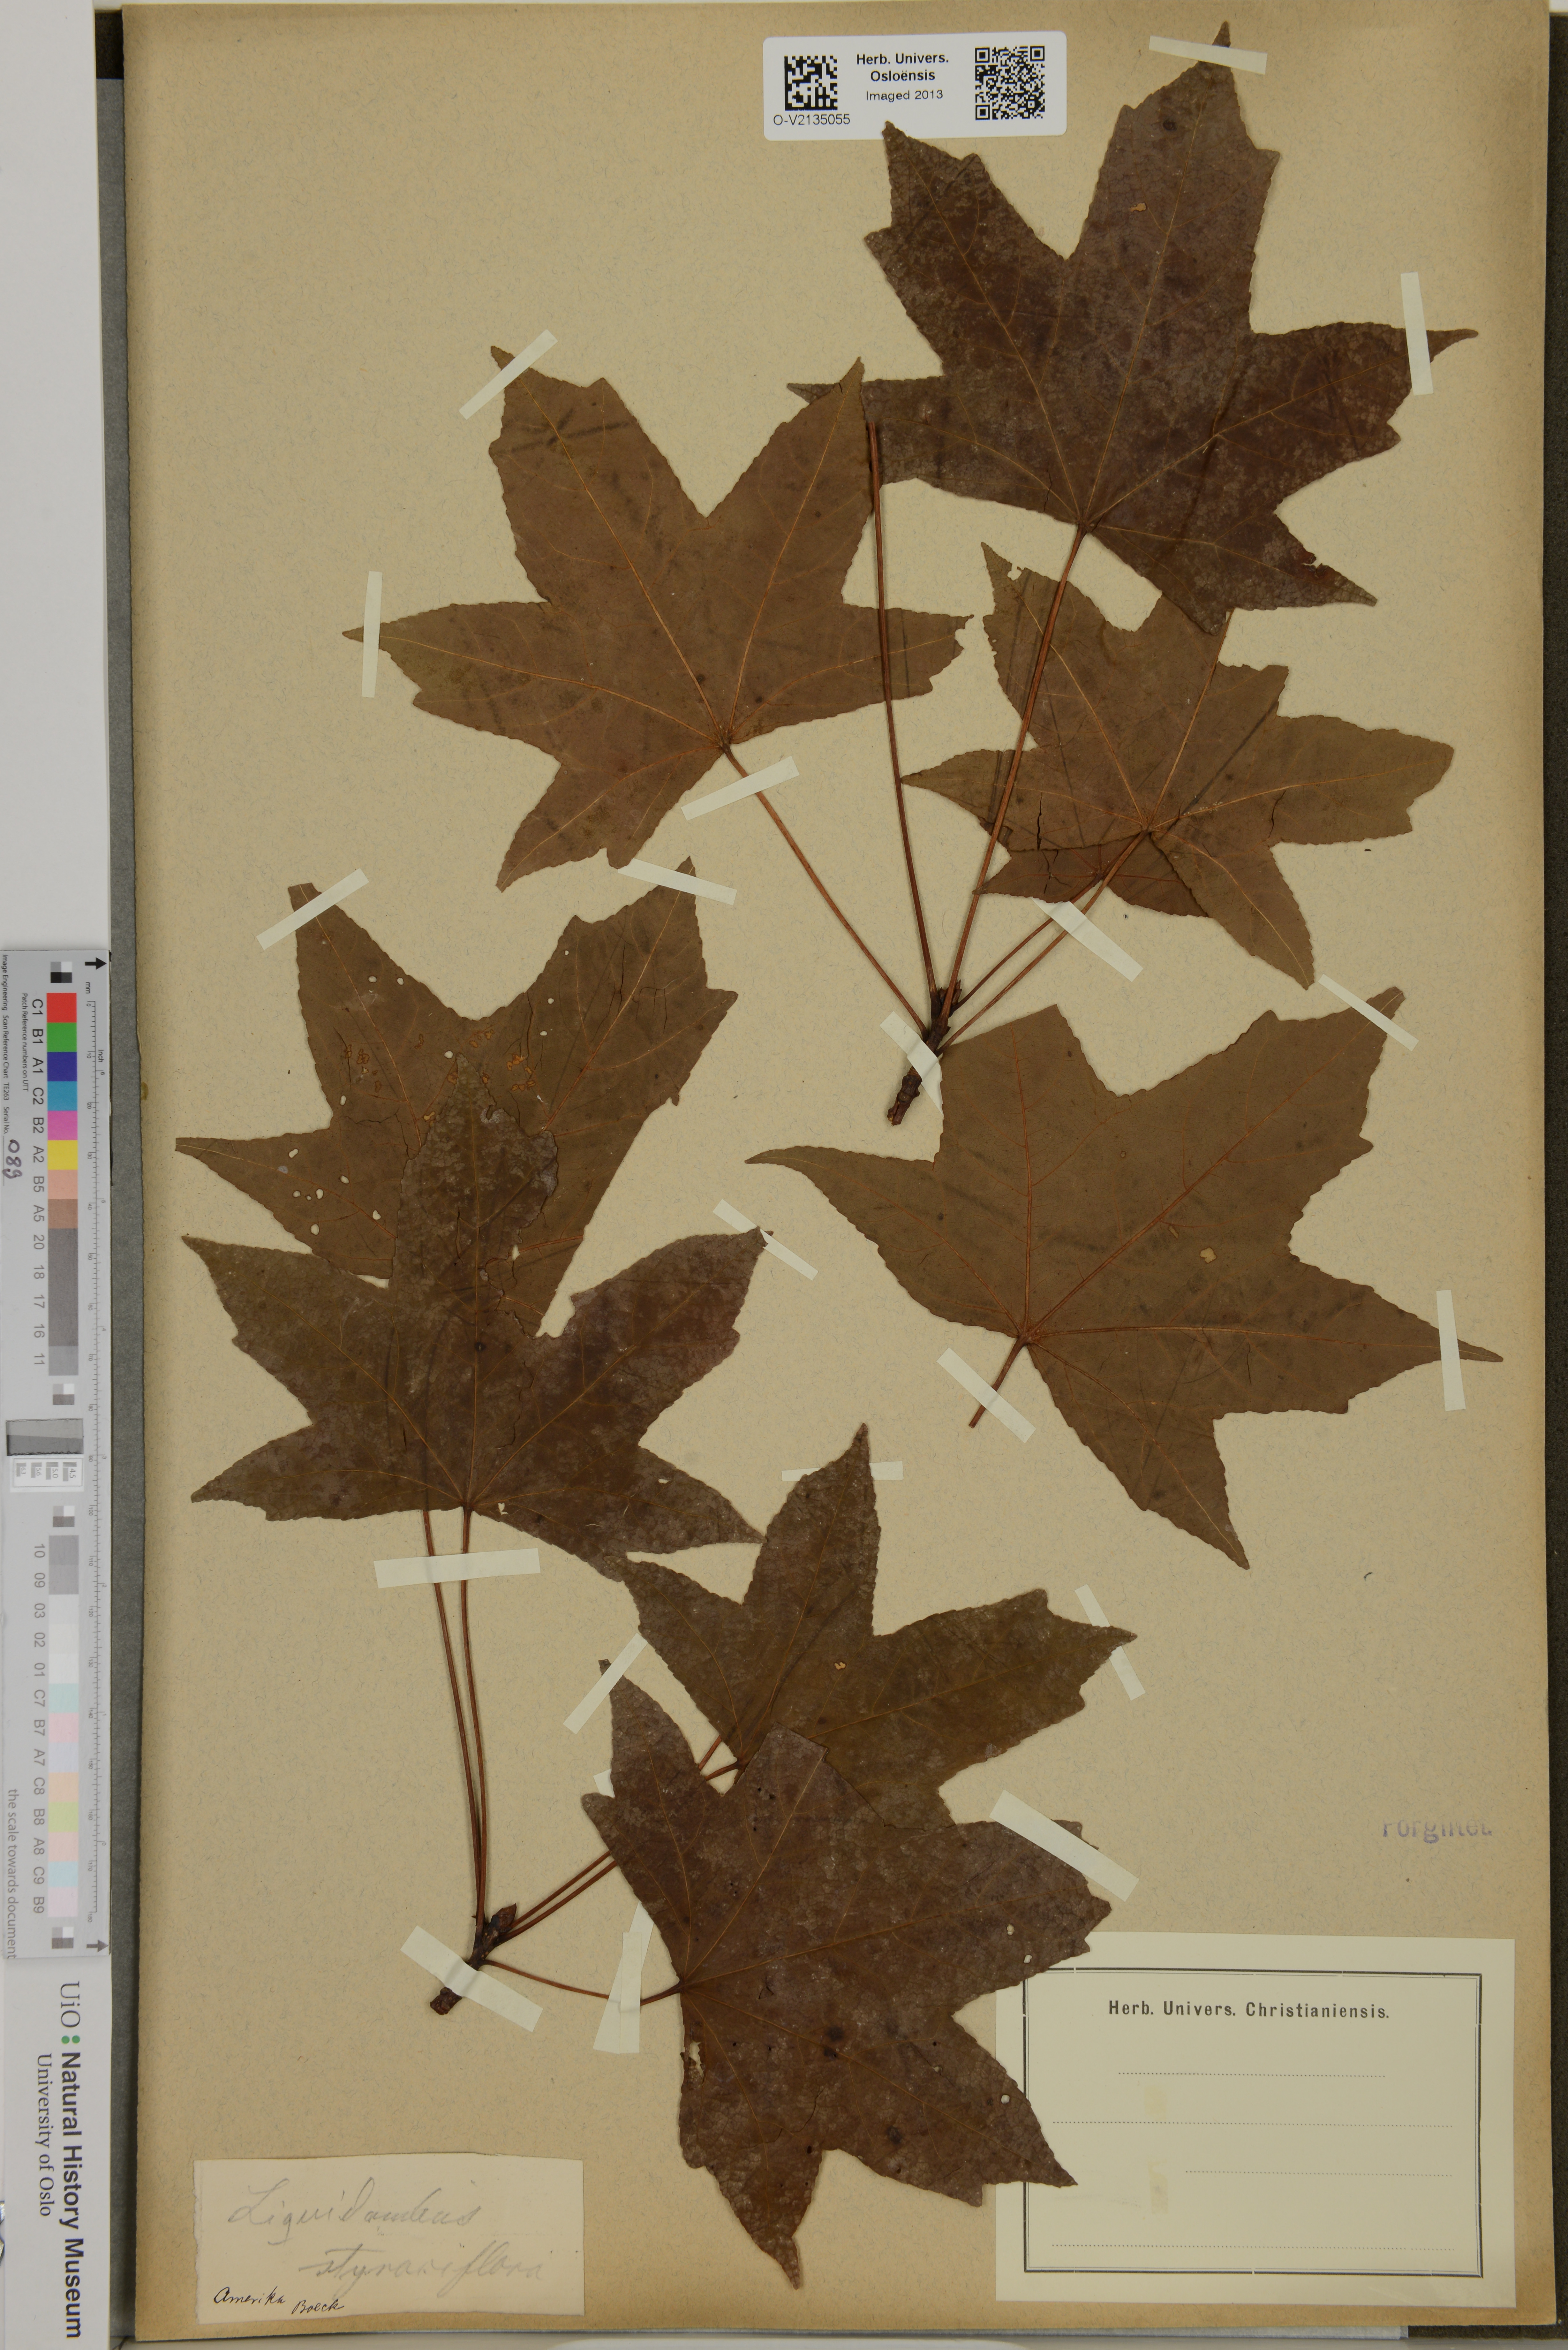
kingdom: Plantae
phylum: Tracheophyta
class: Magnoliopsida
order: Saxifragales
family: Altingiaceae
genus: Liquidambar
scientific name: Liquidambar styraciflua
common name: Sweet gum
